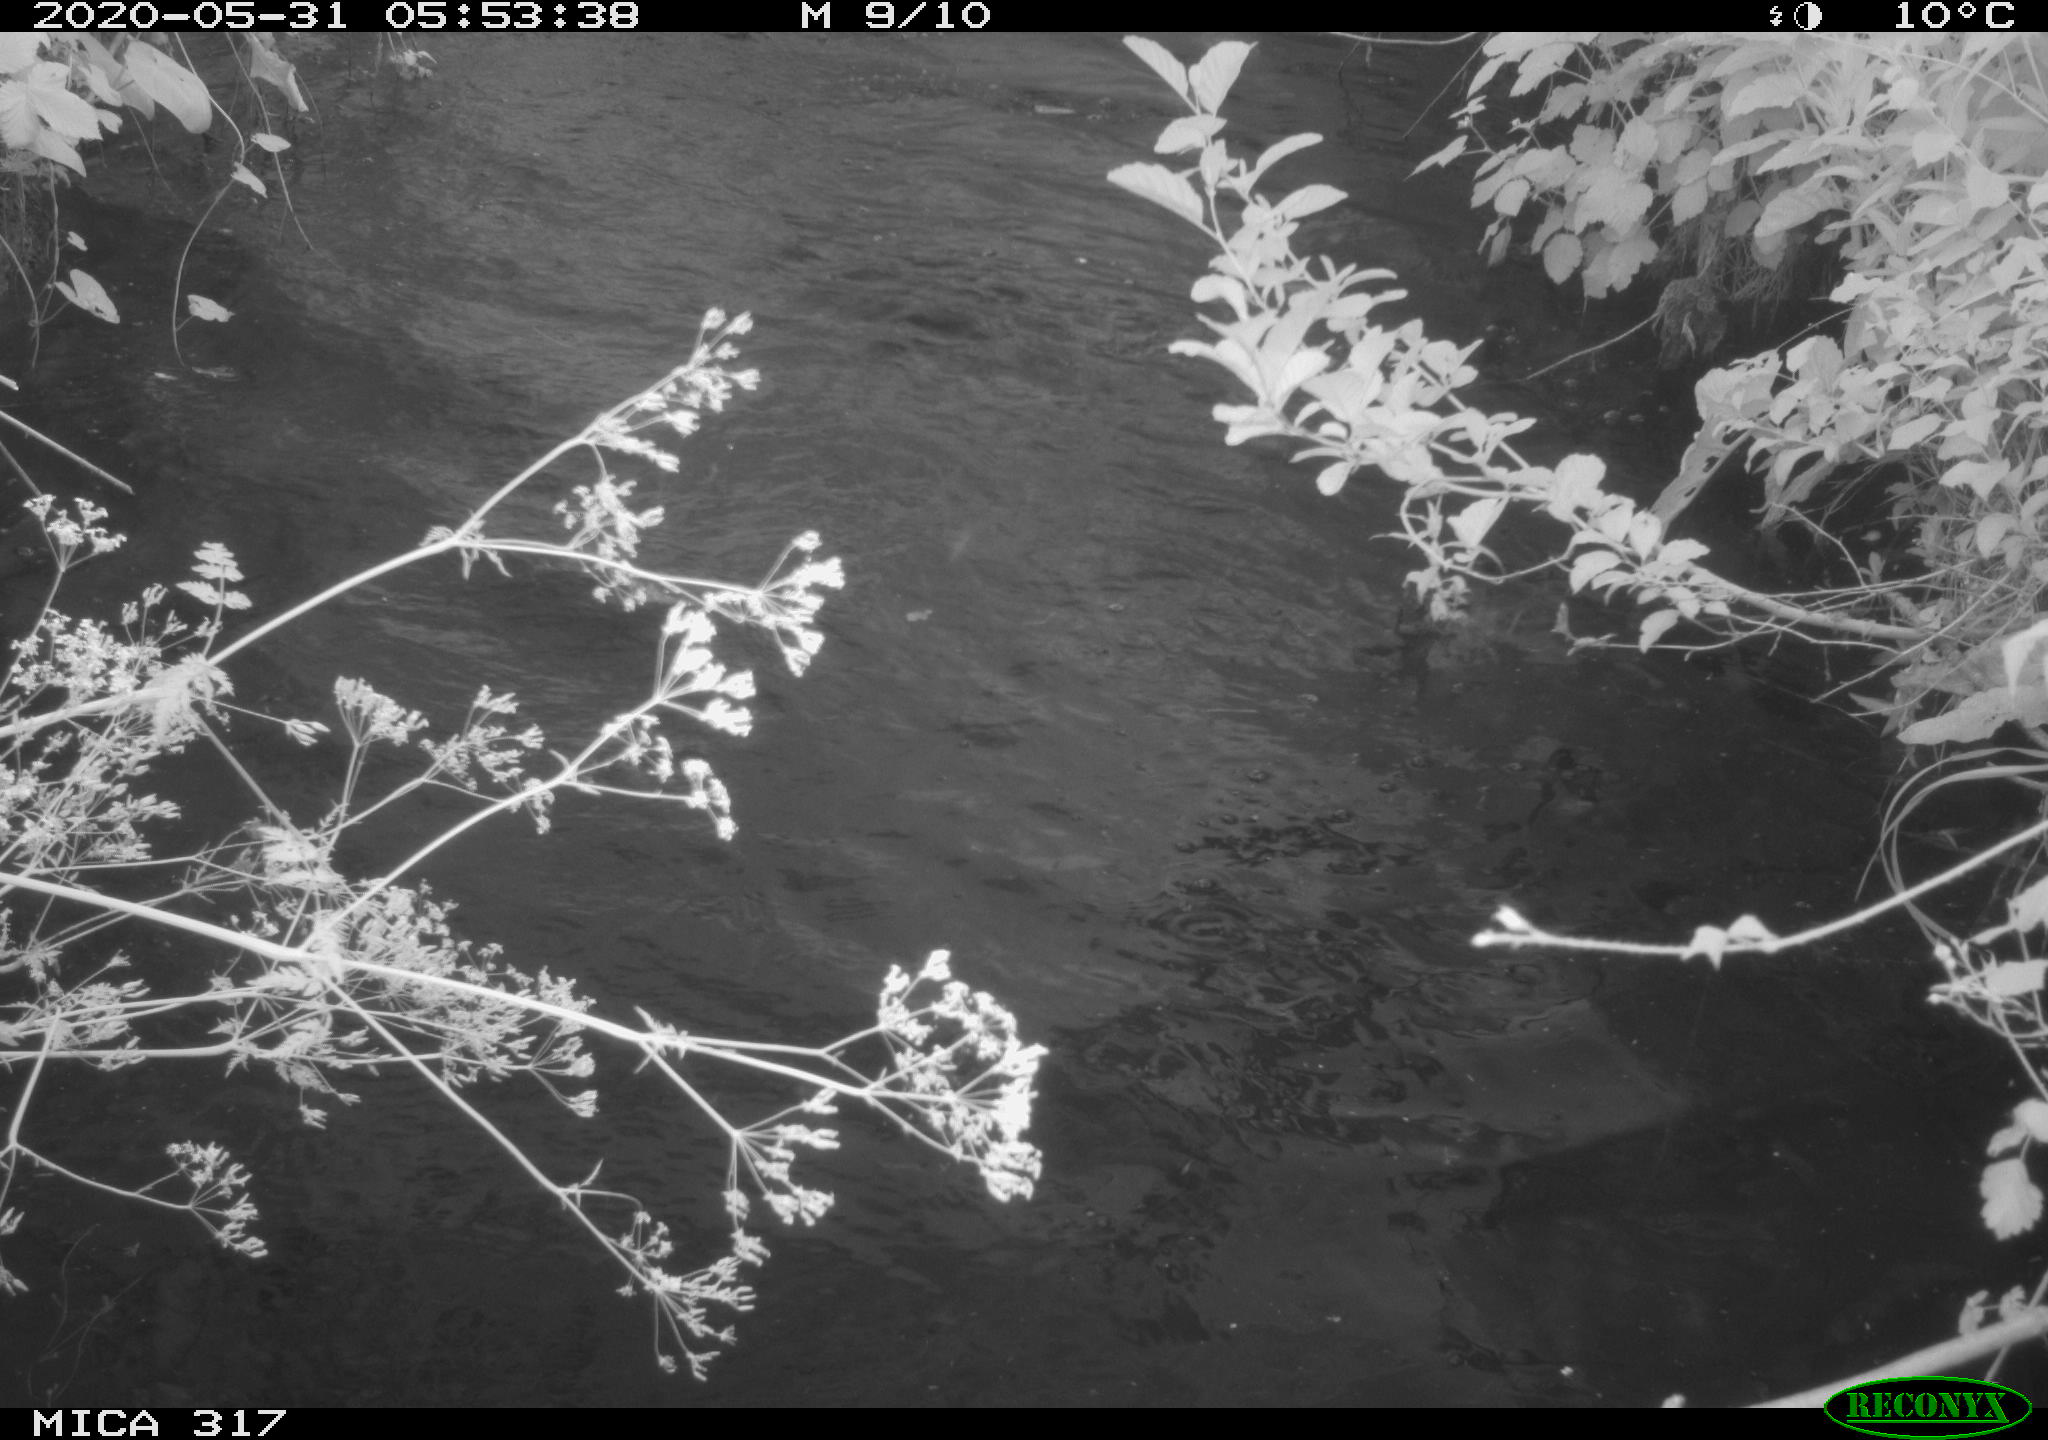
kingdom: Animalia
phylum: Chordata
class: Aves
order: Anseriformes
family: Anatidae
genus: Anas
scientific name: Anas platyrhynchos
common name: Mallard
